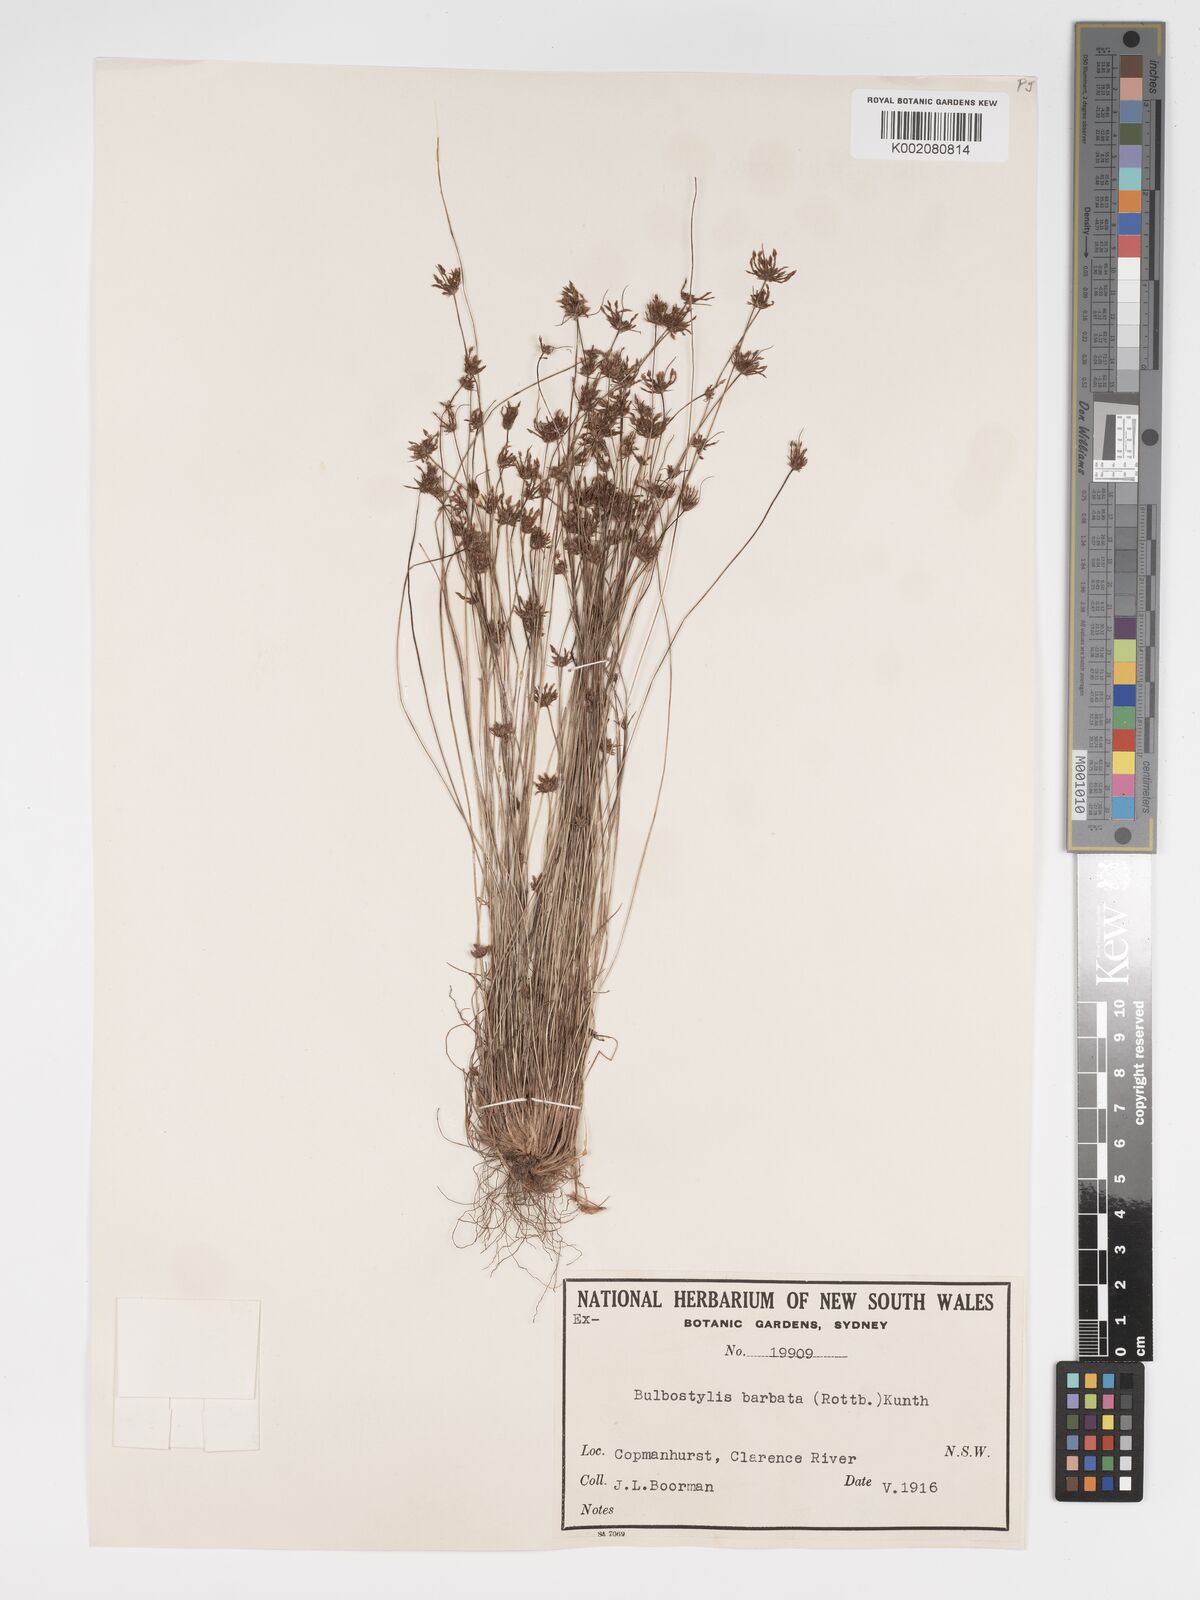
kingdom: Plantae
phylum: Tracheophyta
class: Liliopsida
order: Poales
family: Cyperaceae
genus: Bulbostylis
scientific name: Bulbostylis barbata
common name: Watergrass
